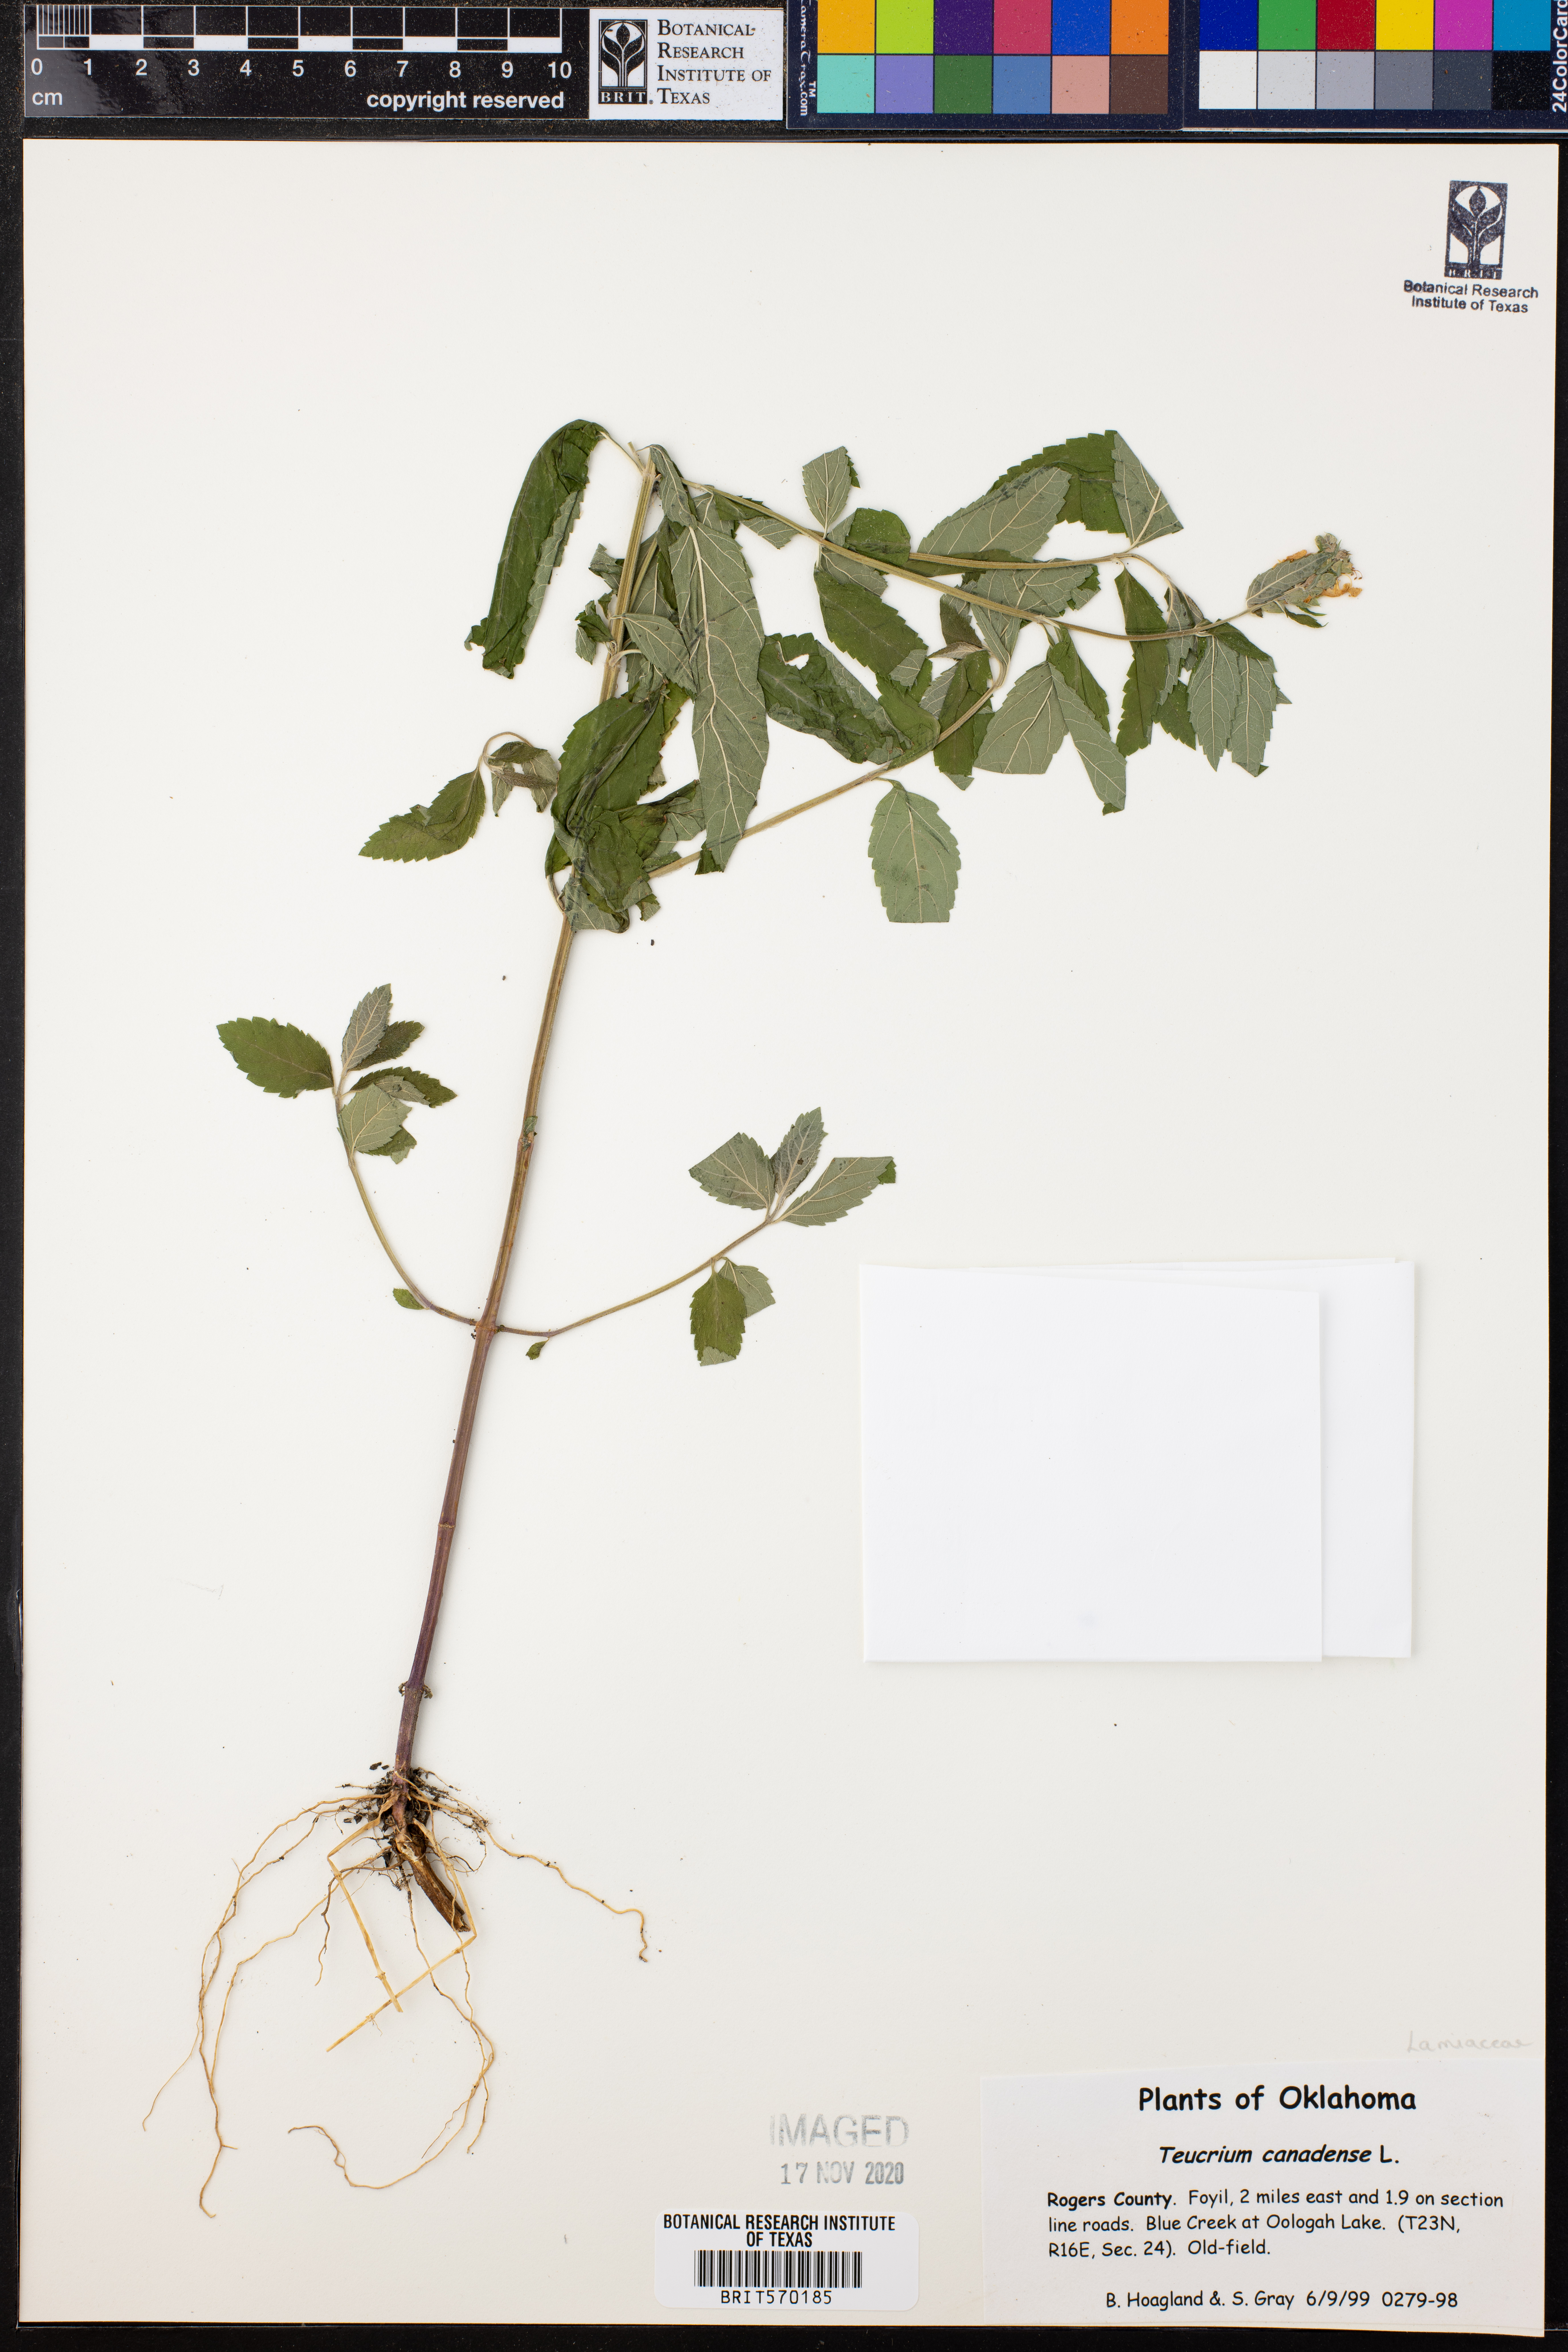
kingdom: Plantae
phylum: Tracheophyta
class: Magnoliopsida
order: Lamiales
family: Lamiaceae
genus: Teucrium
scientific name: Teucrium canadense
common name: American germander
